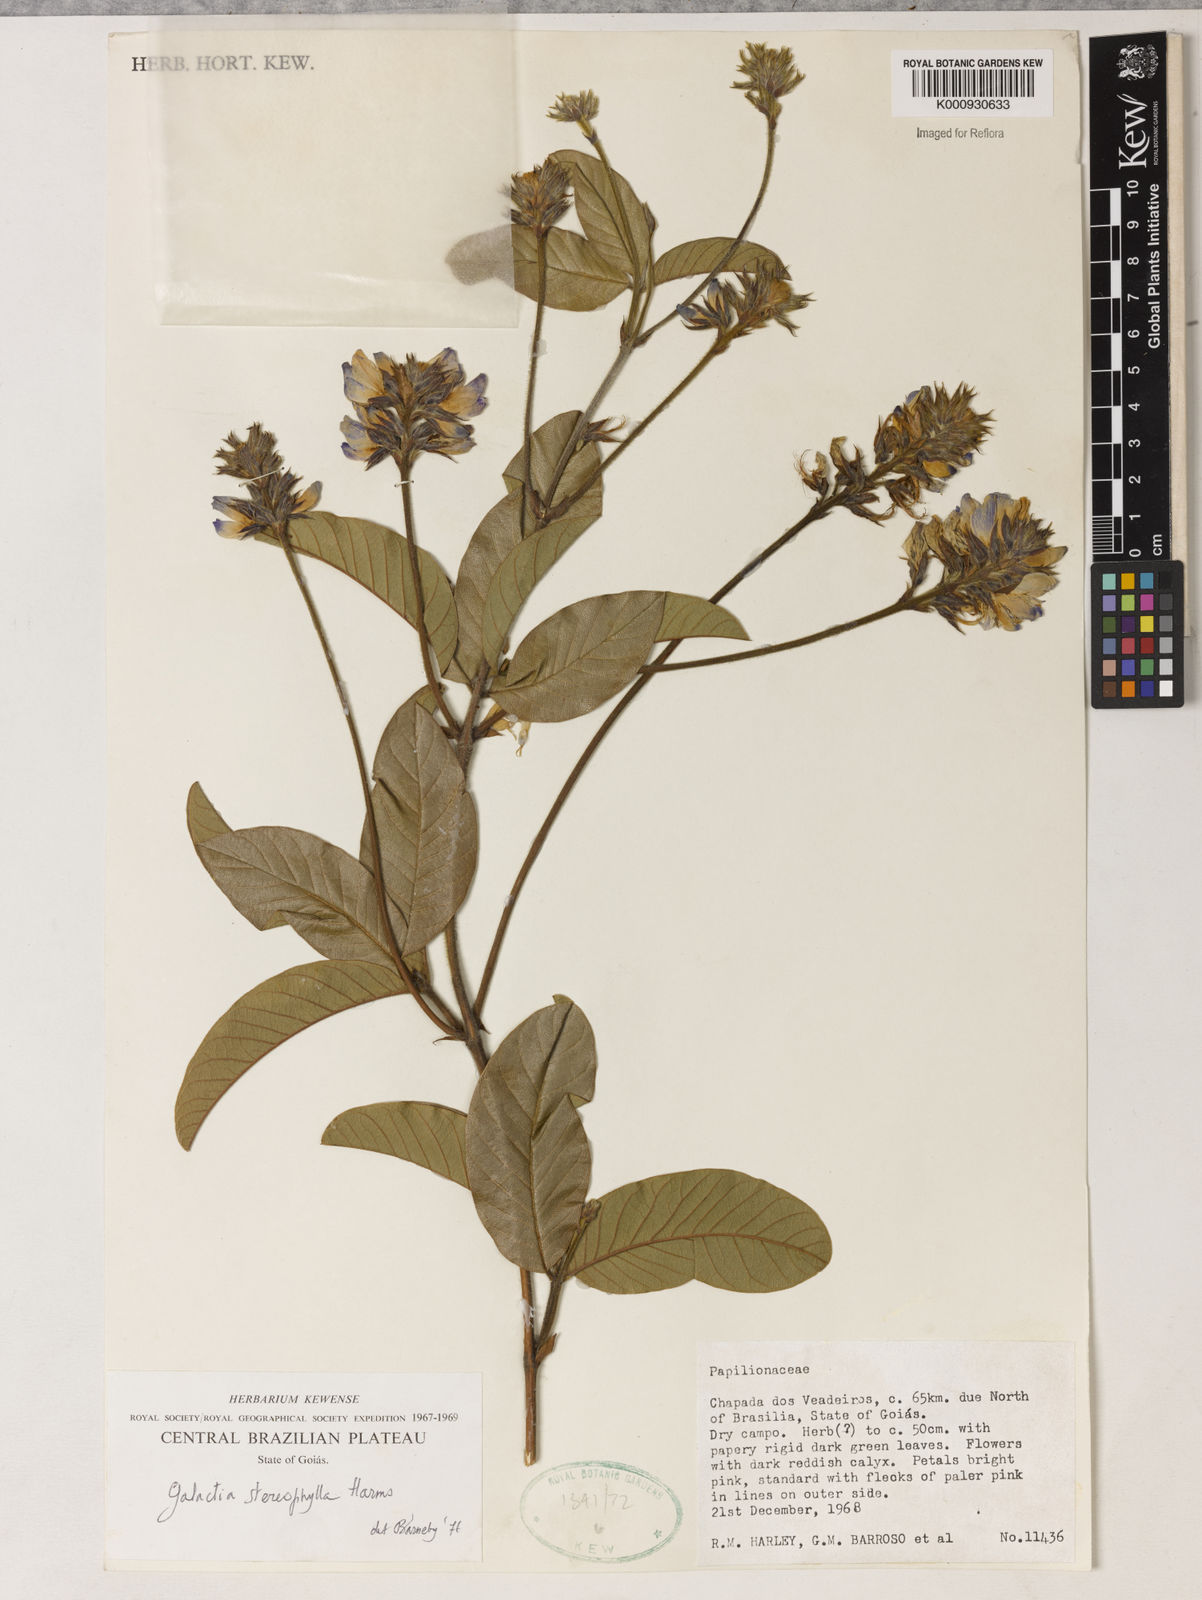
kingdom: Plantae
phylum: Tracheophyta
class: Magnoliopsida
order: Fabales
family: Fabaceae
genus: Betencourtia
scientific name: Betencourtia stereophylla
